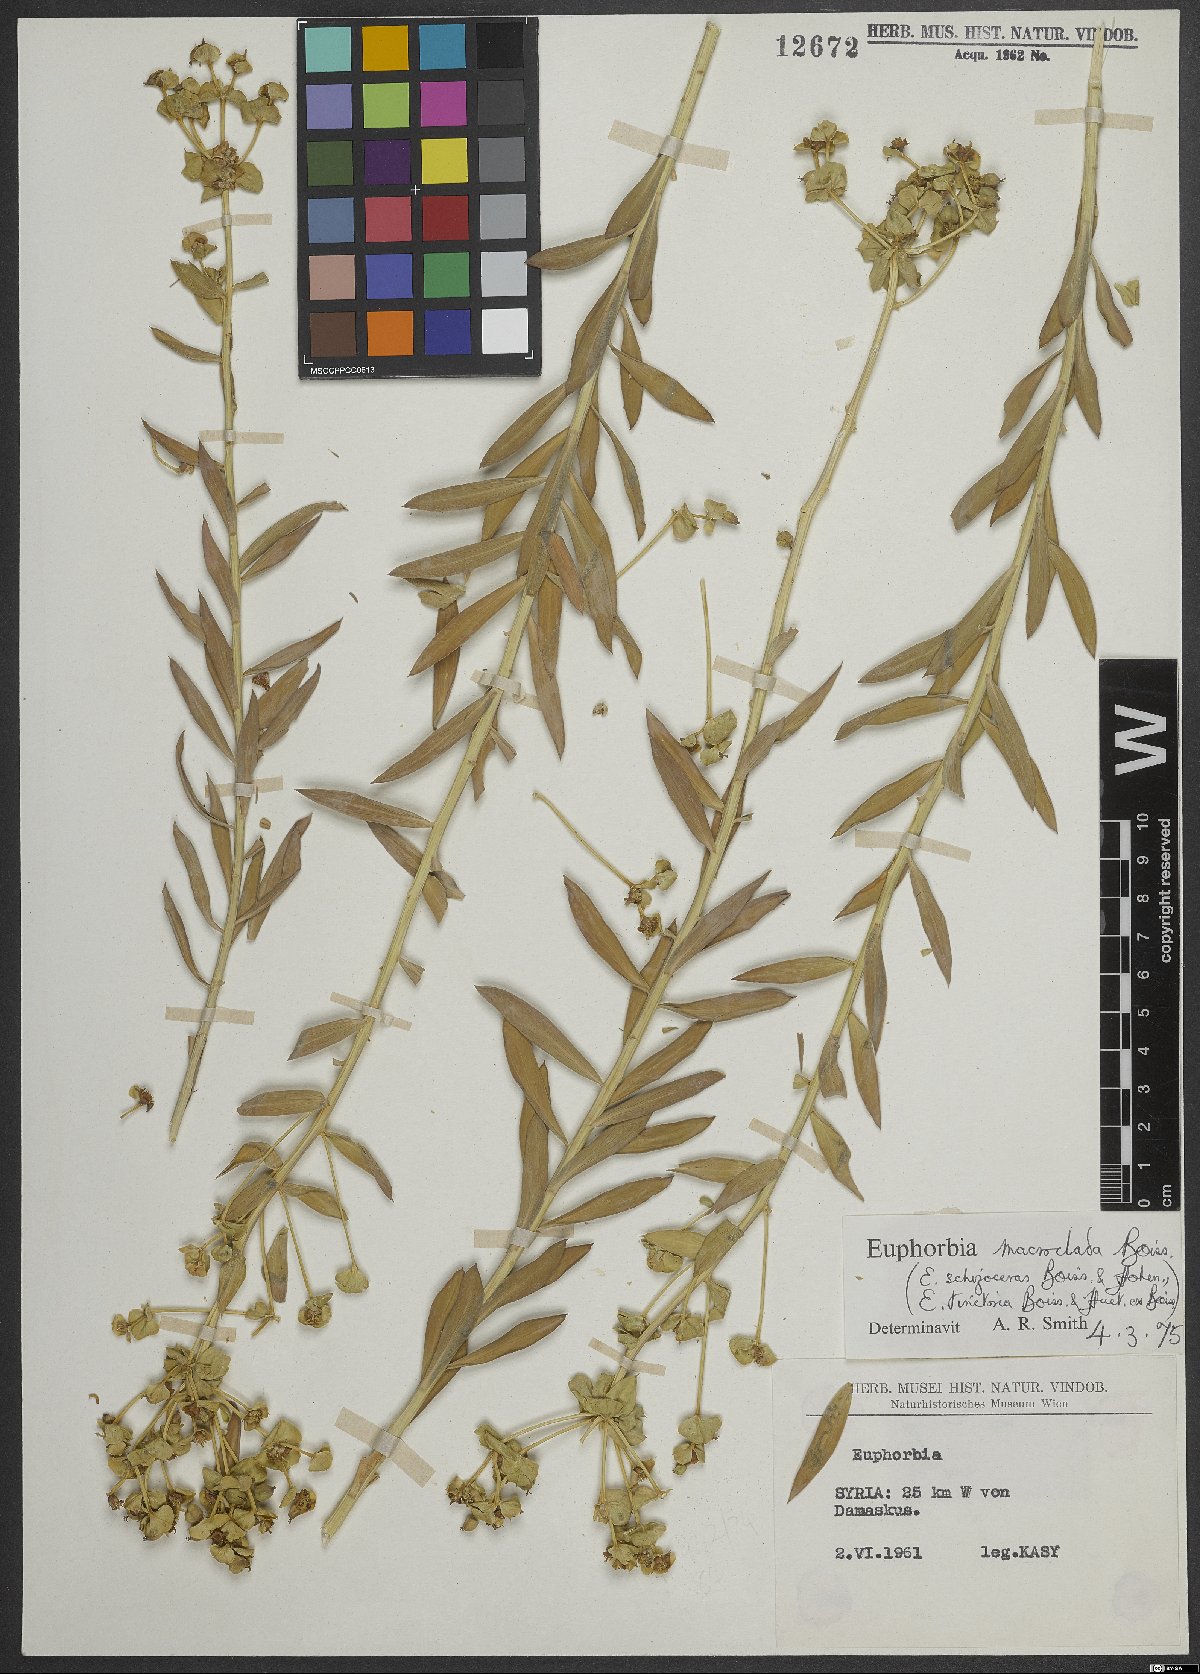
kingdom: Plantae
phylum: Tracheophyta
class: Magnoliopsida
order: Malpighiales
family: Euphorbiaceae
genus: Euphorbia
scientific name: Euphorbia macroclada
